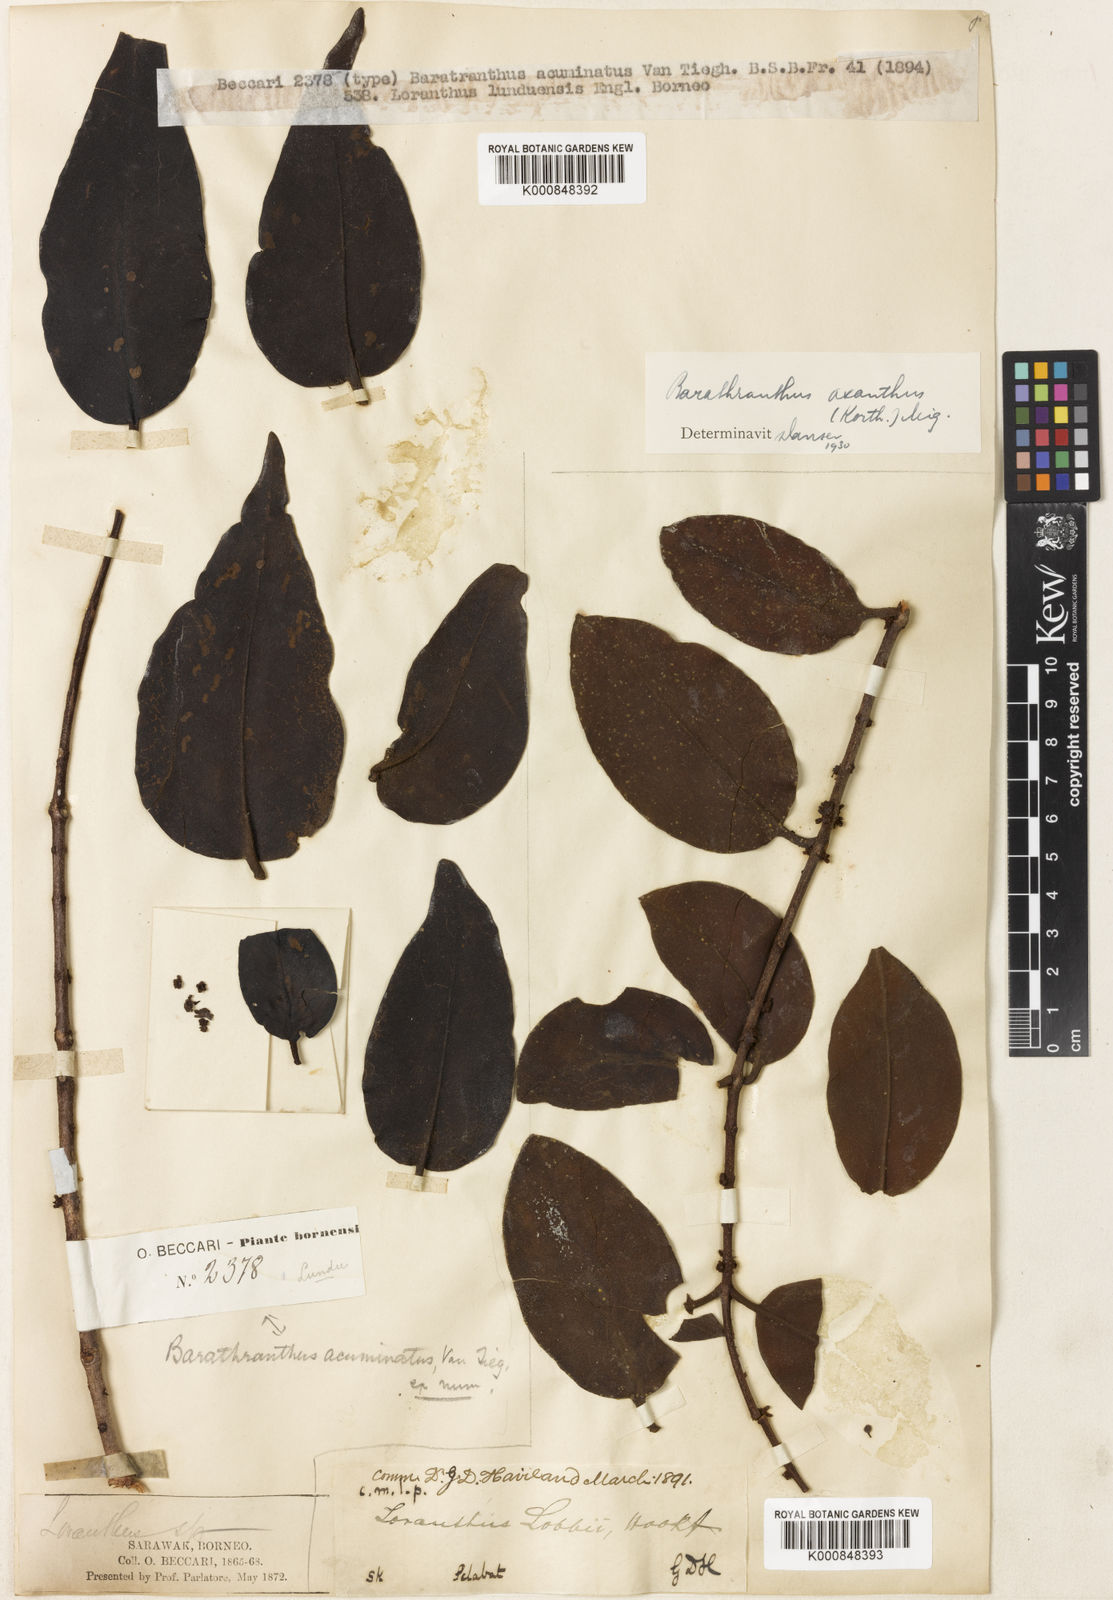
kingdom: Plantae
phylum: Tracheophyta
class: Magnoliopsida
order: Santalales
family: Loranthaceae
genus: Barathranthus
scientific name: Barathranthus
